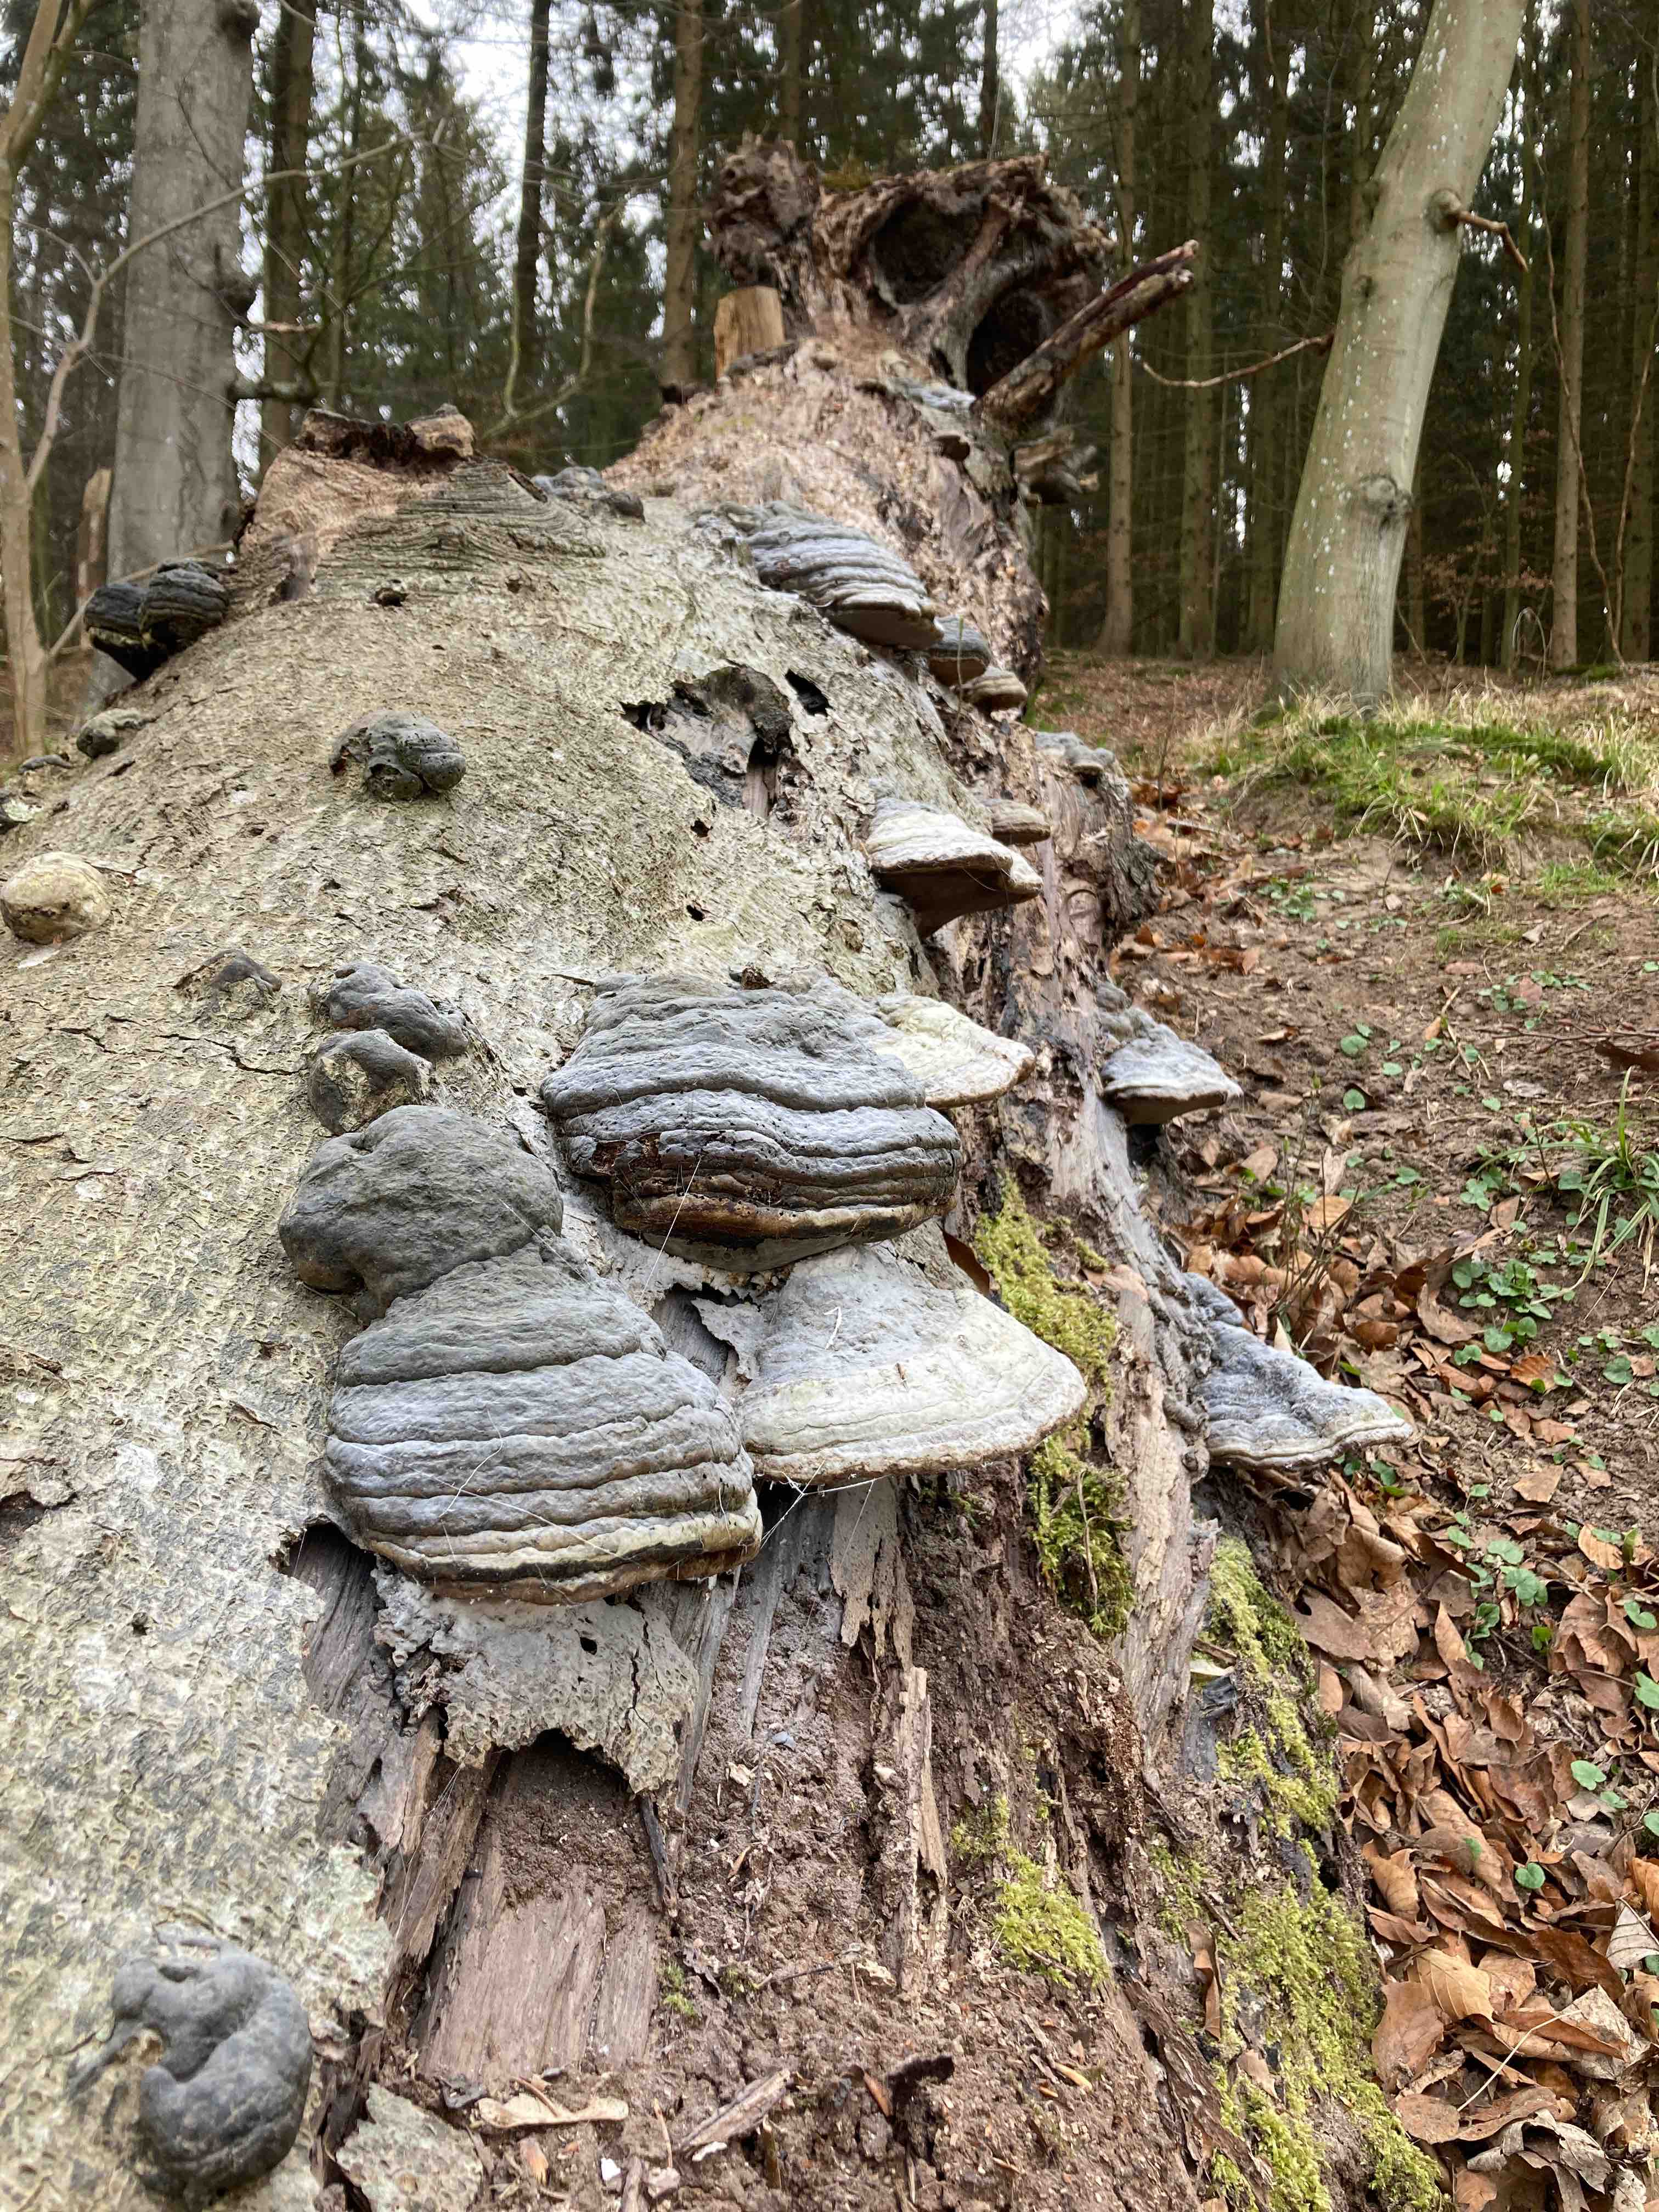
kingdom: Fungi
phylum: Basidiomycota
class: Agaricomycetes
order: Polyporales
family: Polyporaceae
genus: Fomes
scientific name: Fomes fomentarius
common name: tøndersvamp
